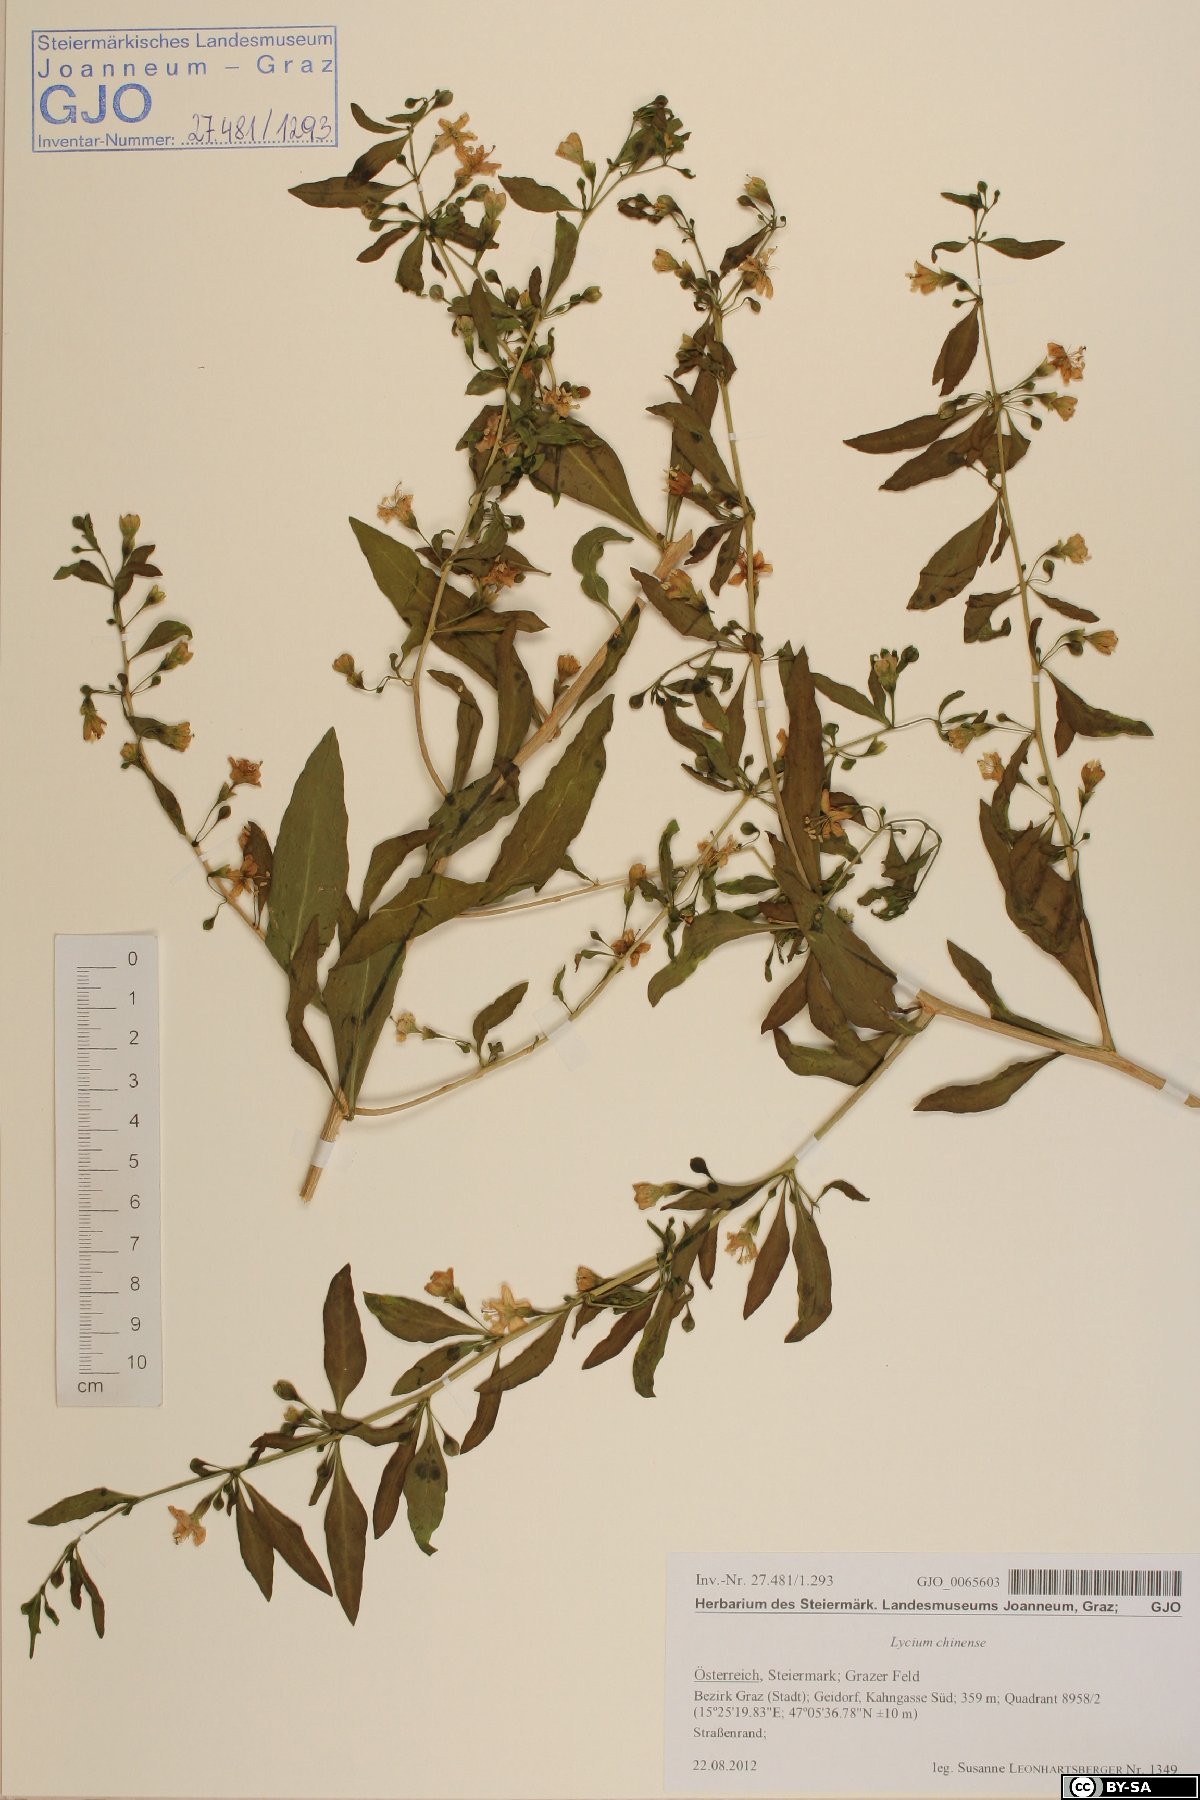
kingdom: Plantae
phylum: Tracheophyta
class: Magnoliopsida
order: Solanales
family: Solanaceae
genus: Lycium
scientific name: Lycium chinense
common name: Chinese teaplant
